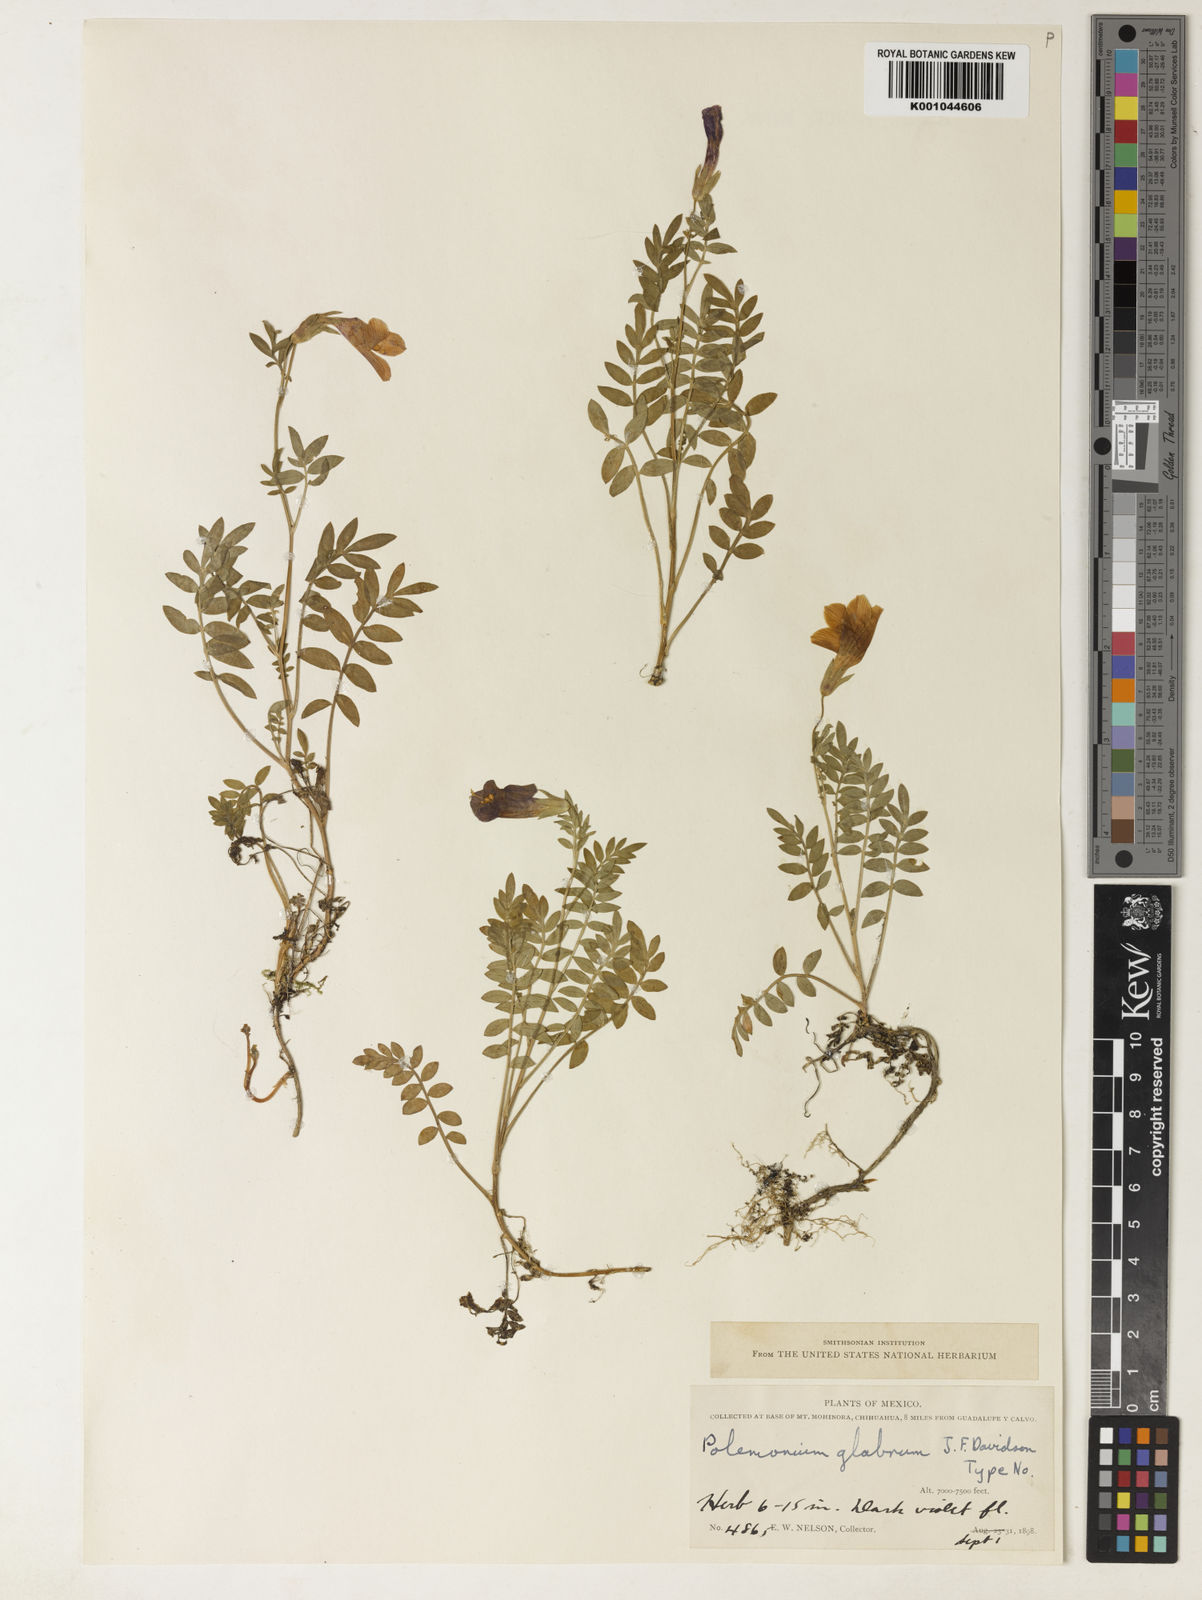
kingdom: Plantae
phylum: Tracheophyta
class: Magnoliopsida
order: Ericales
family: Polemoniaceae
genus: Polemonium
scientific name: Polemonium glabrum
